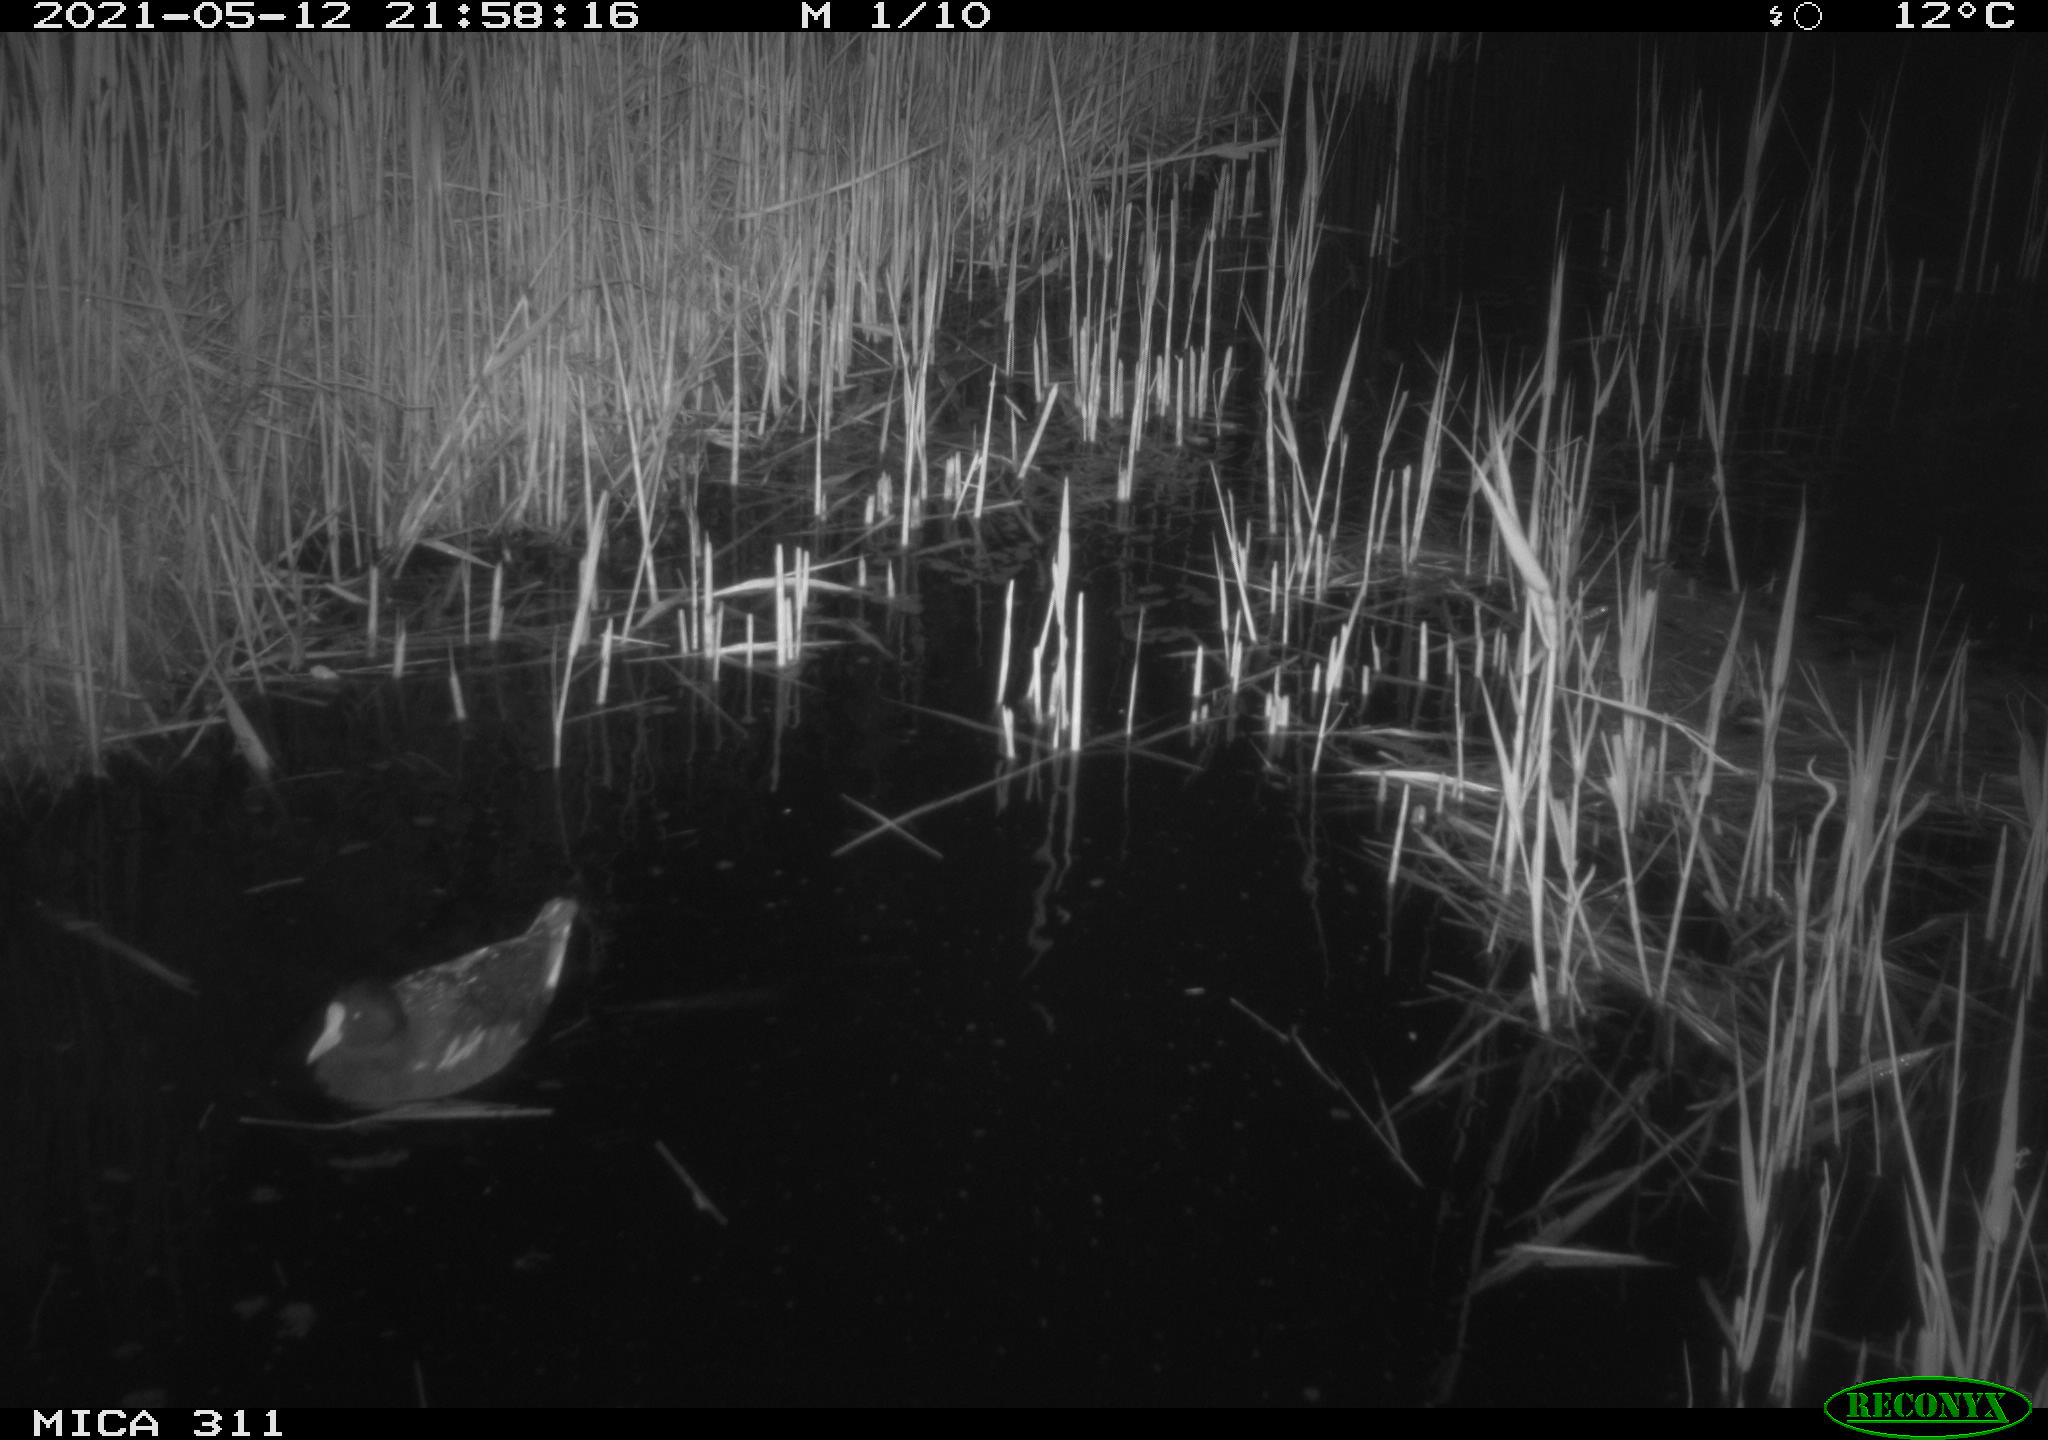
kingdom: Animalia
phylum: Chordata
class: Aves
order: Gruiformes
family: Rallidae
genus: Gallinula
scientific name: Gallinula chloropus
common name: Common moorhen
